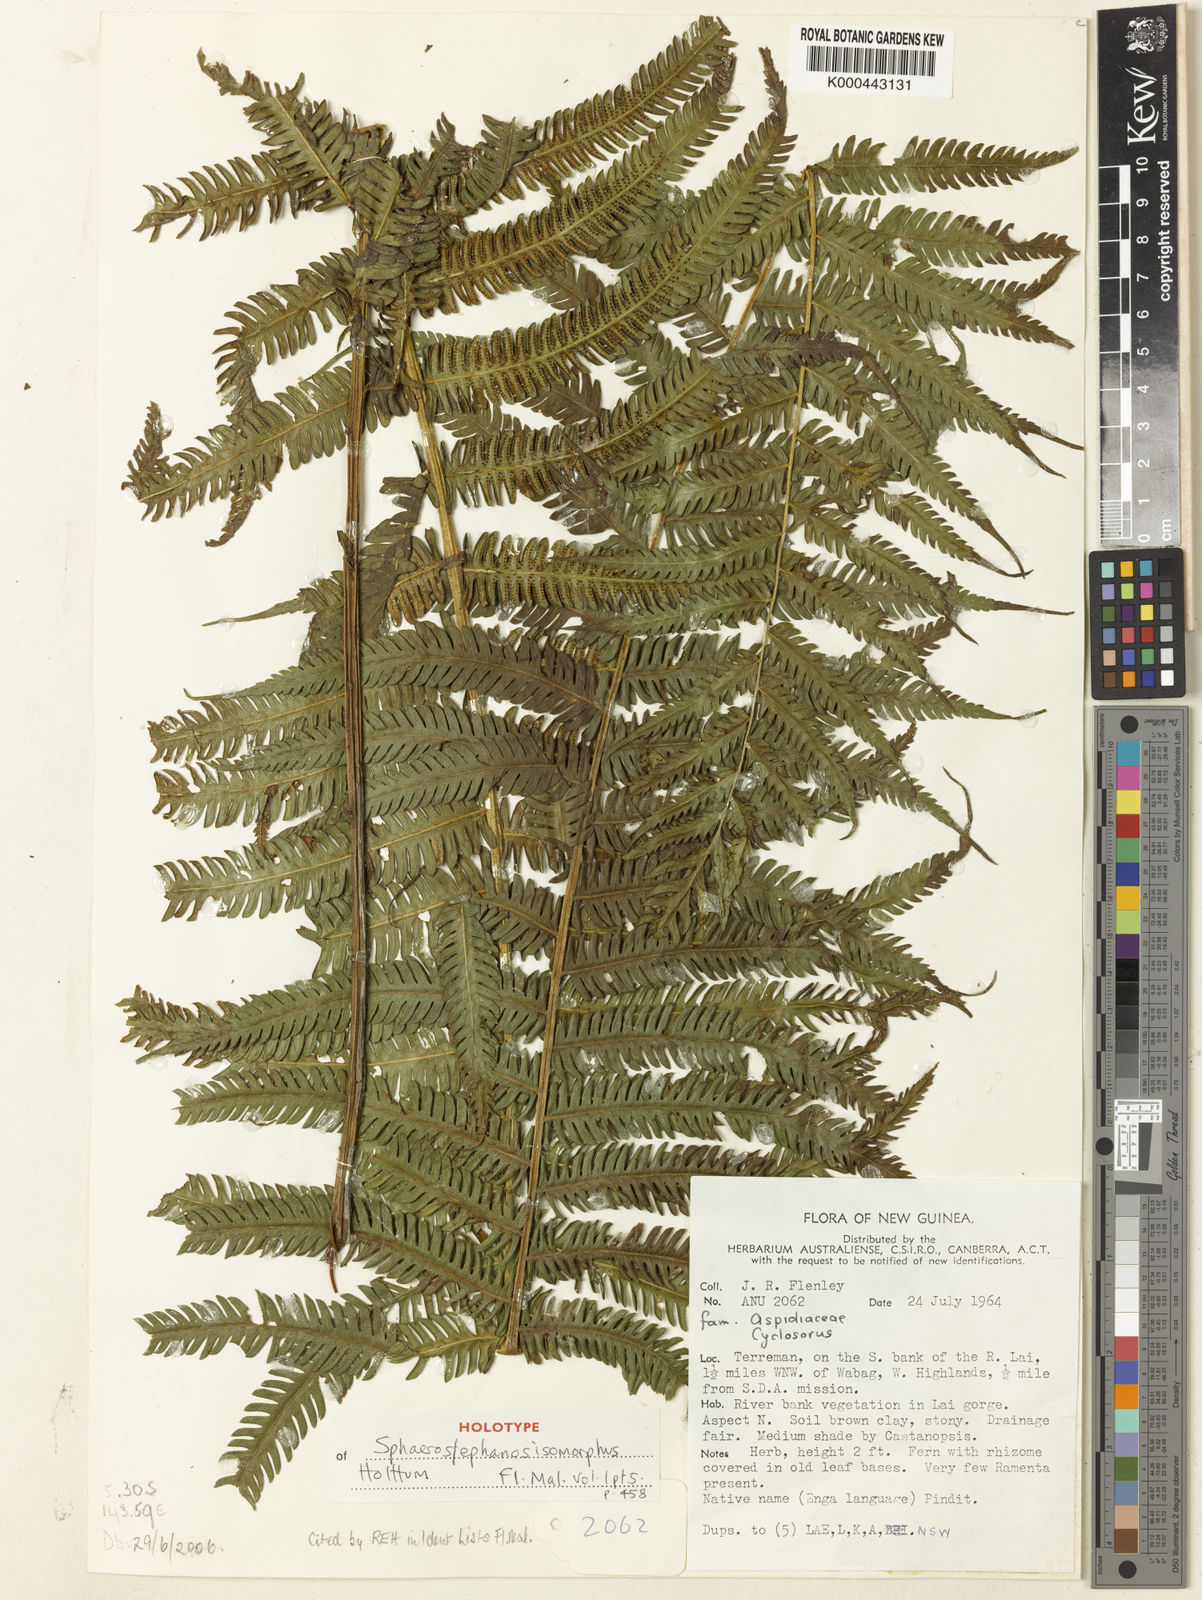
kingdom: Plantae
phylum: Tracheophyta
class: Polypodiopsida
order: Polypodiales
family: Thelypteridaceae
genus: Sphaerostephanos
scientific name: Sphaerostephanos isomorphus
